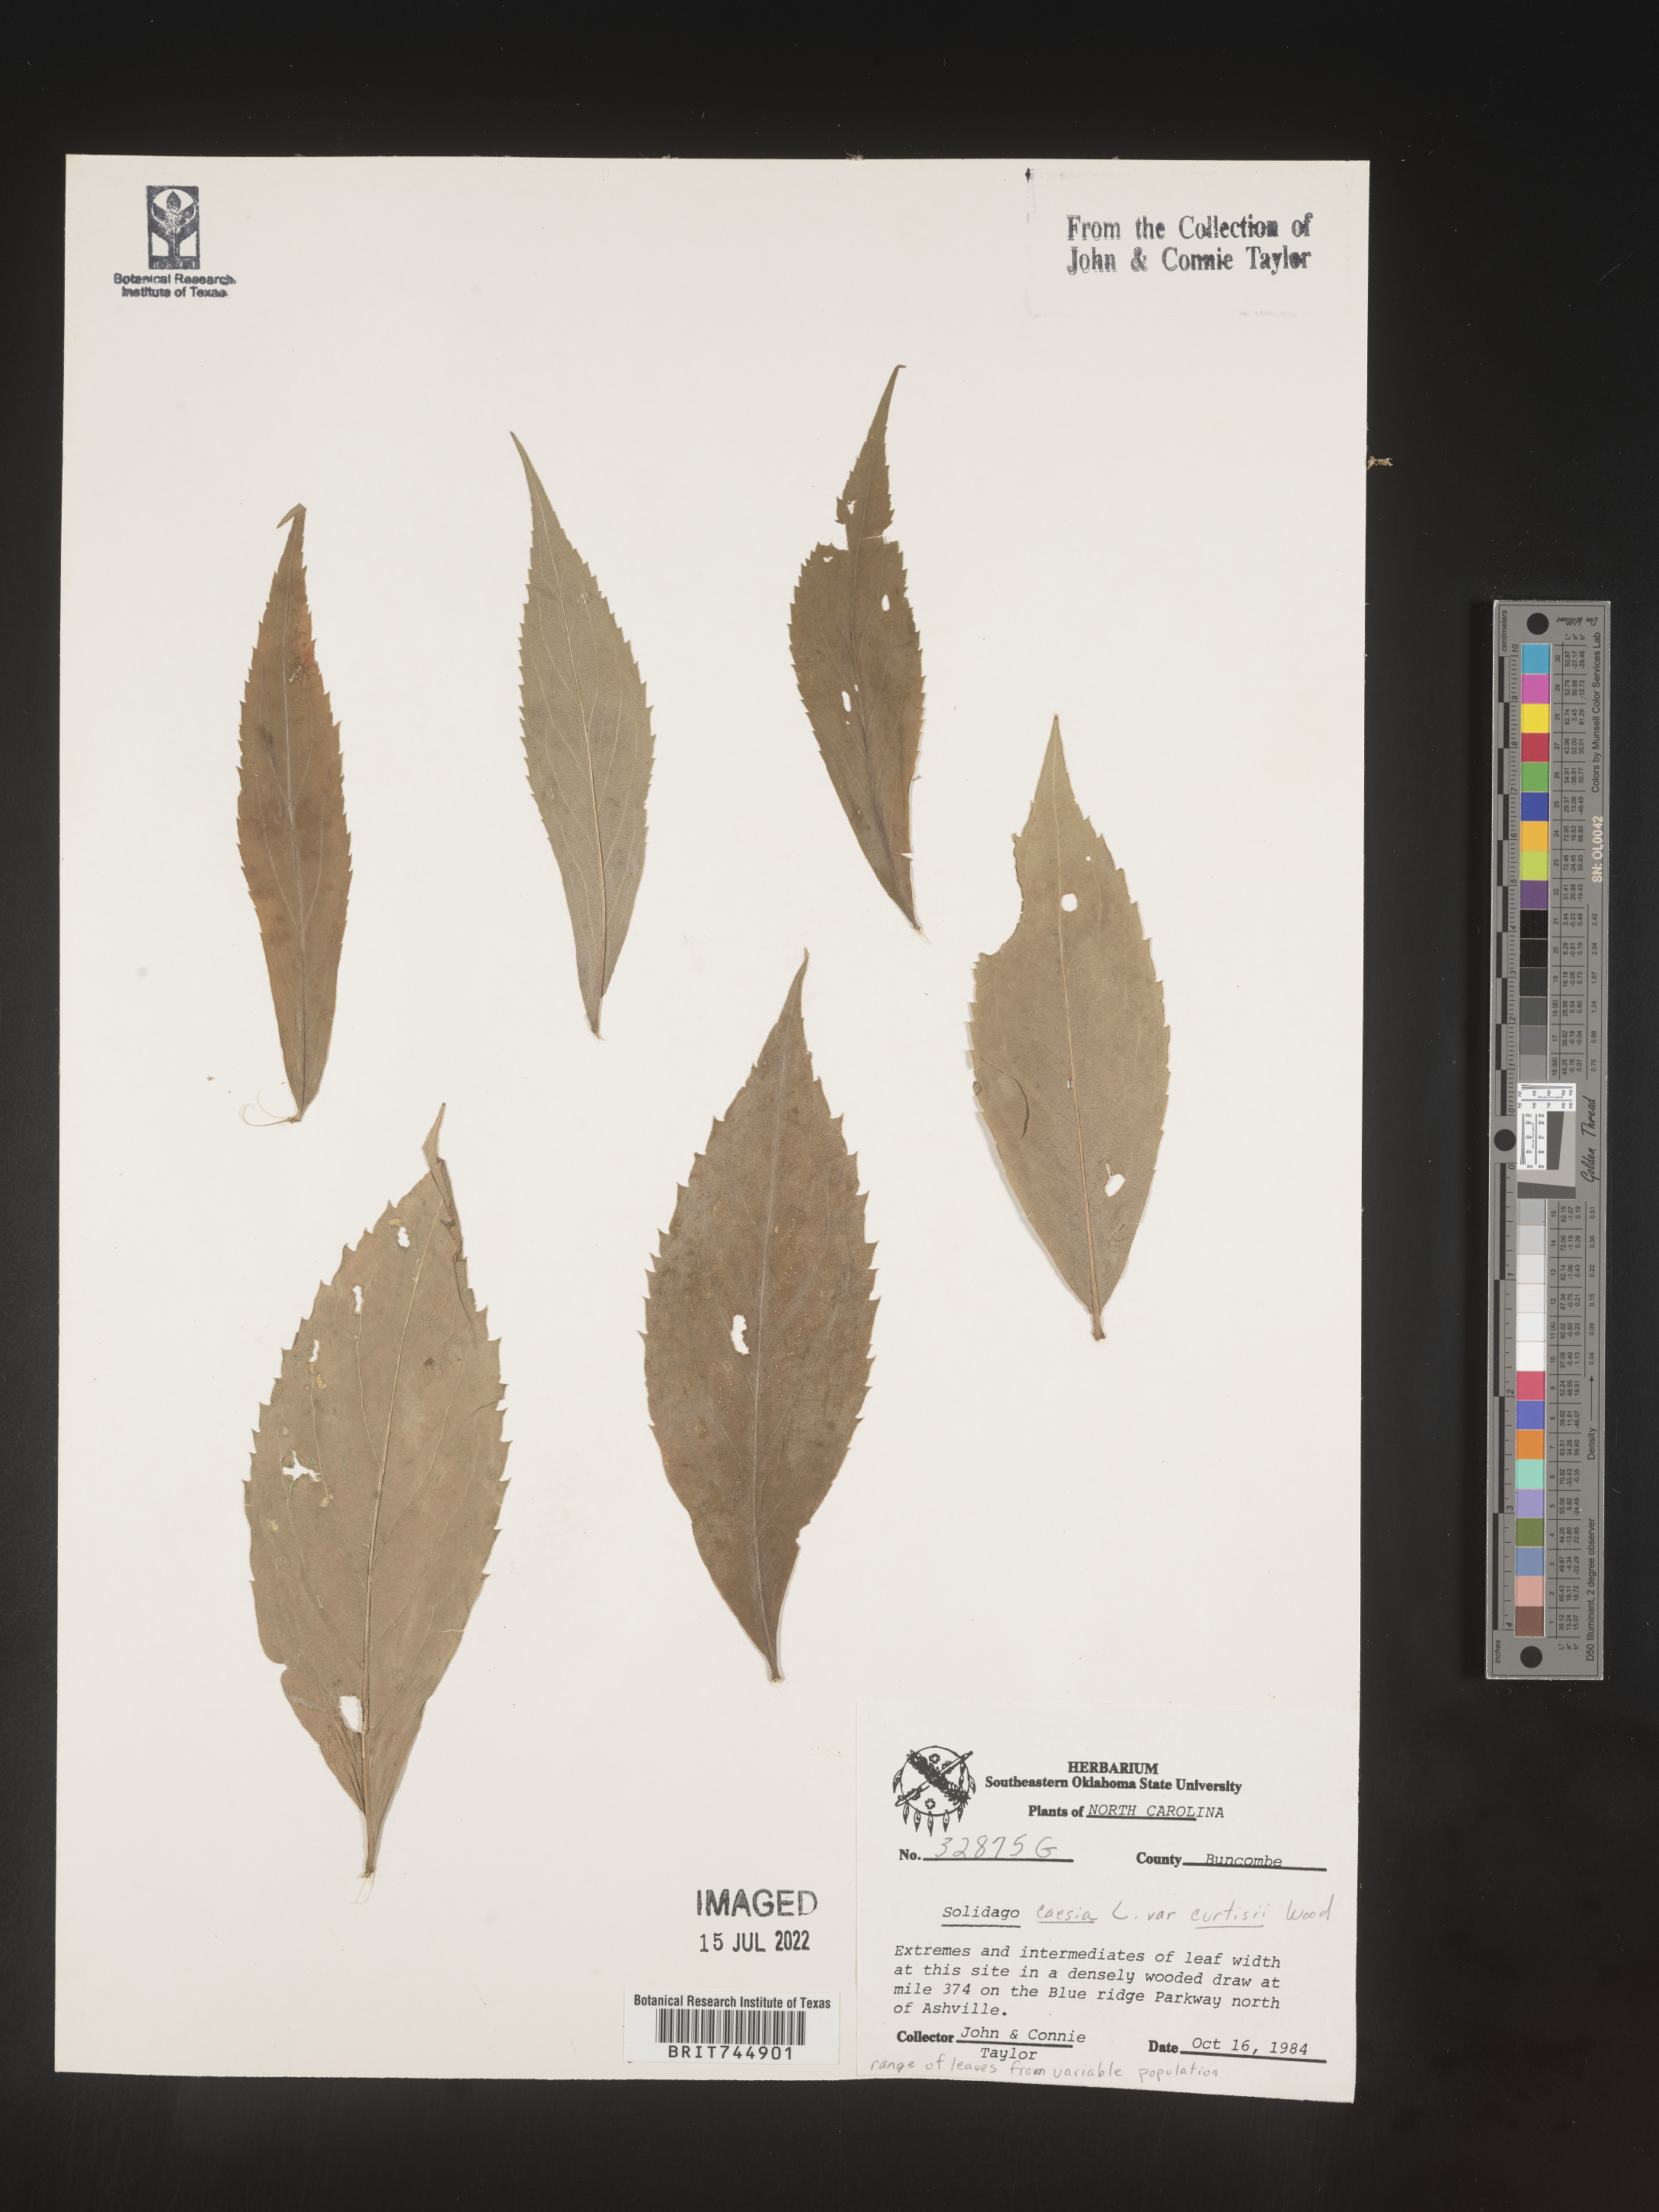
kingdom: Plantae
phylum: Tracheophyta
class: Magnoliopsida
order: Asterales
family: Asteraceae
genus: Solidago
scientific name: Solidago curtisii
